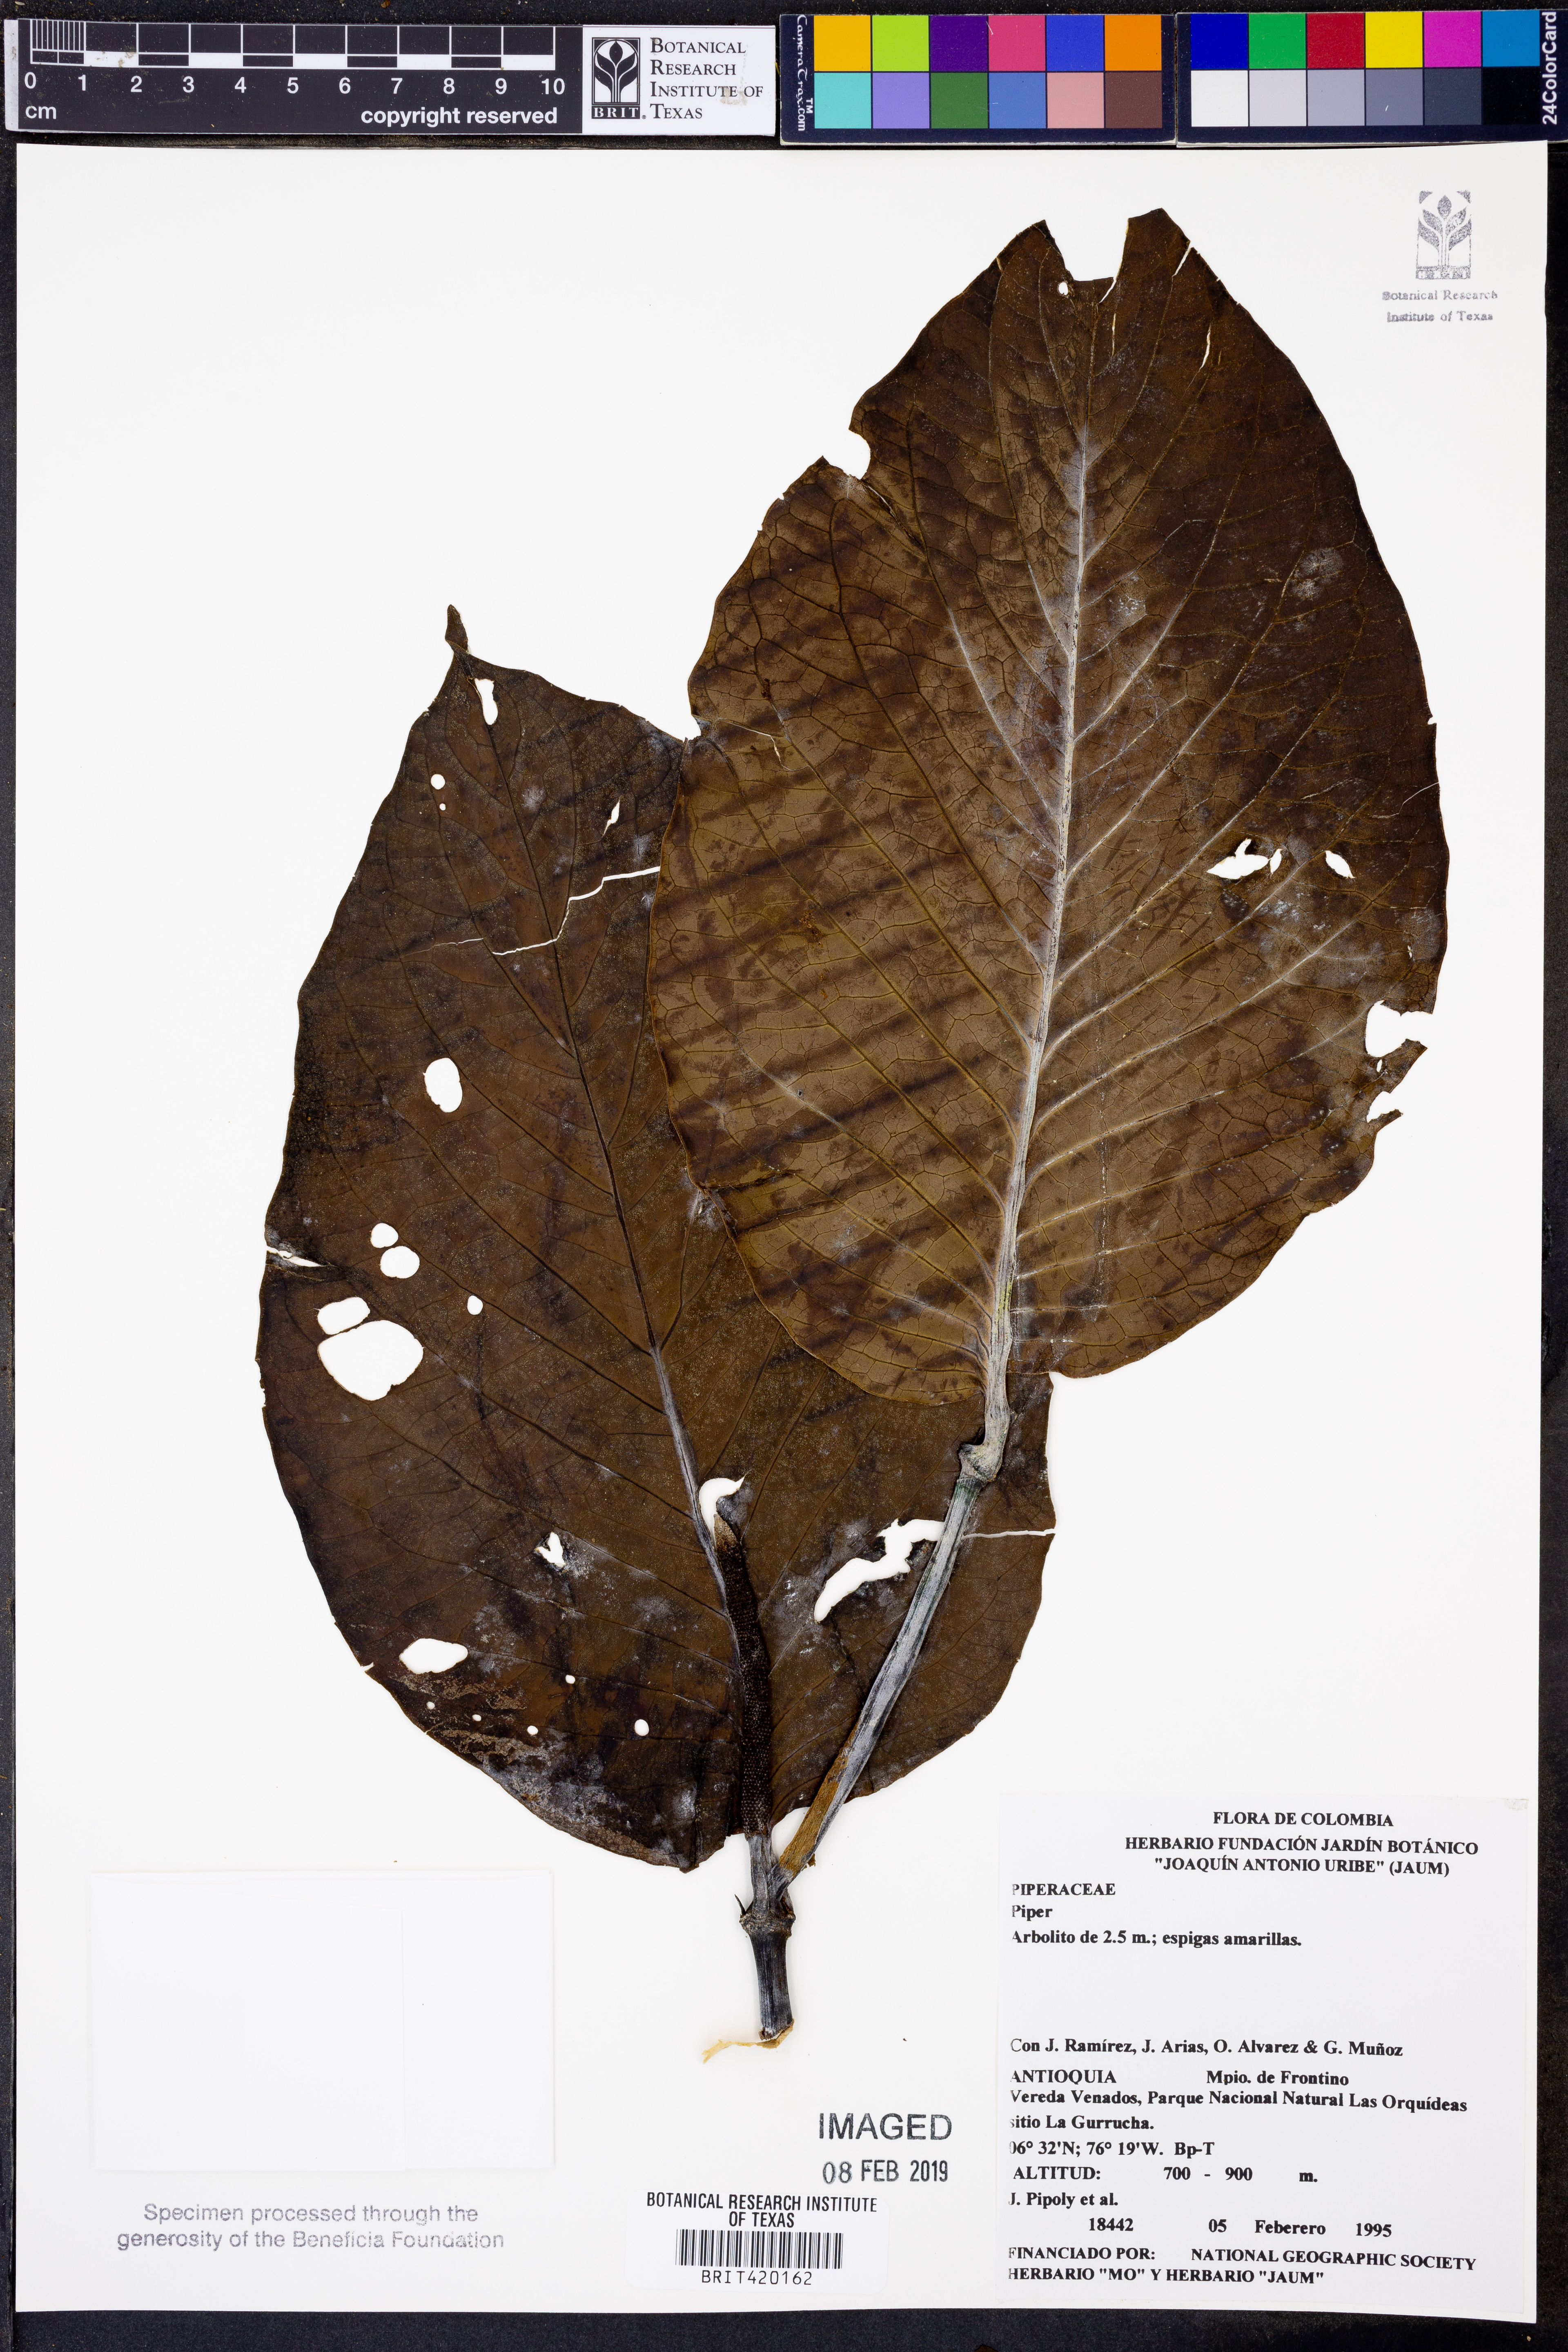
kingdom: Plantae
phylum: Tracheophyta
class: Magnoliopsida
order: Piperales
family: Piperaceae
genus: Piper
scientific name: Piper
